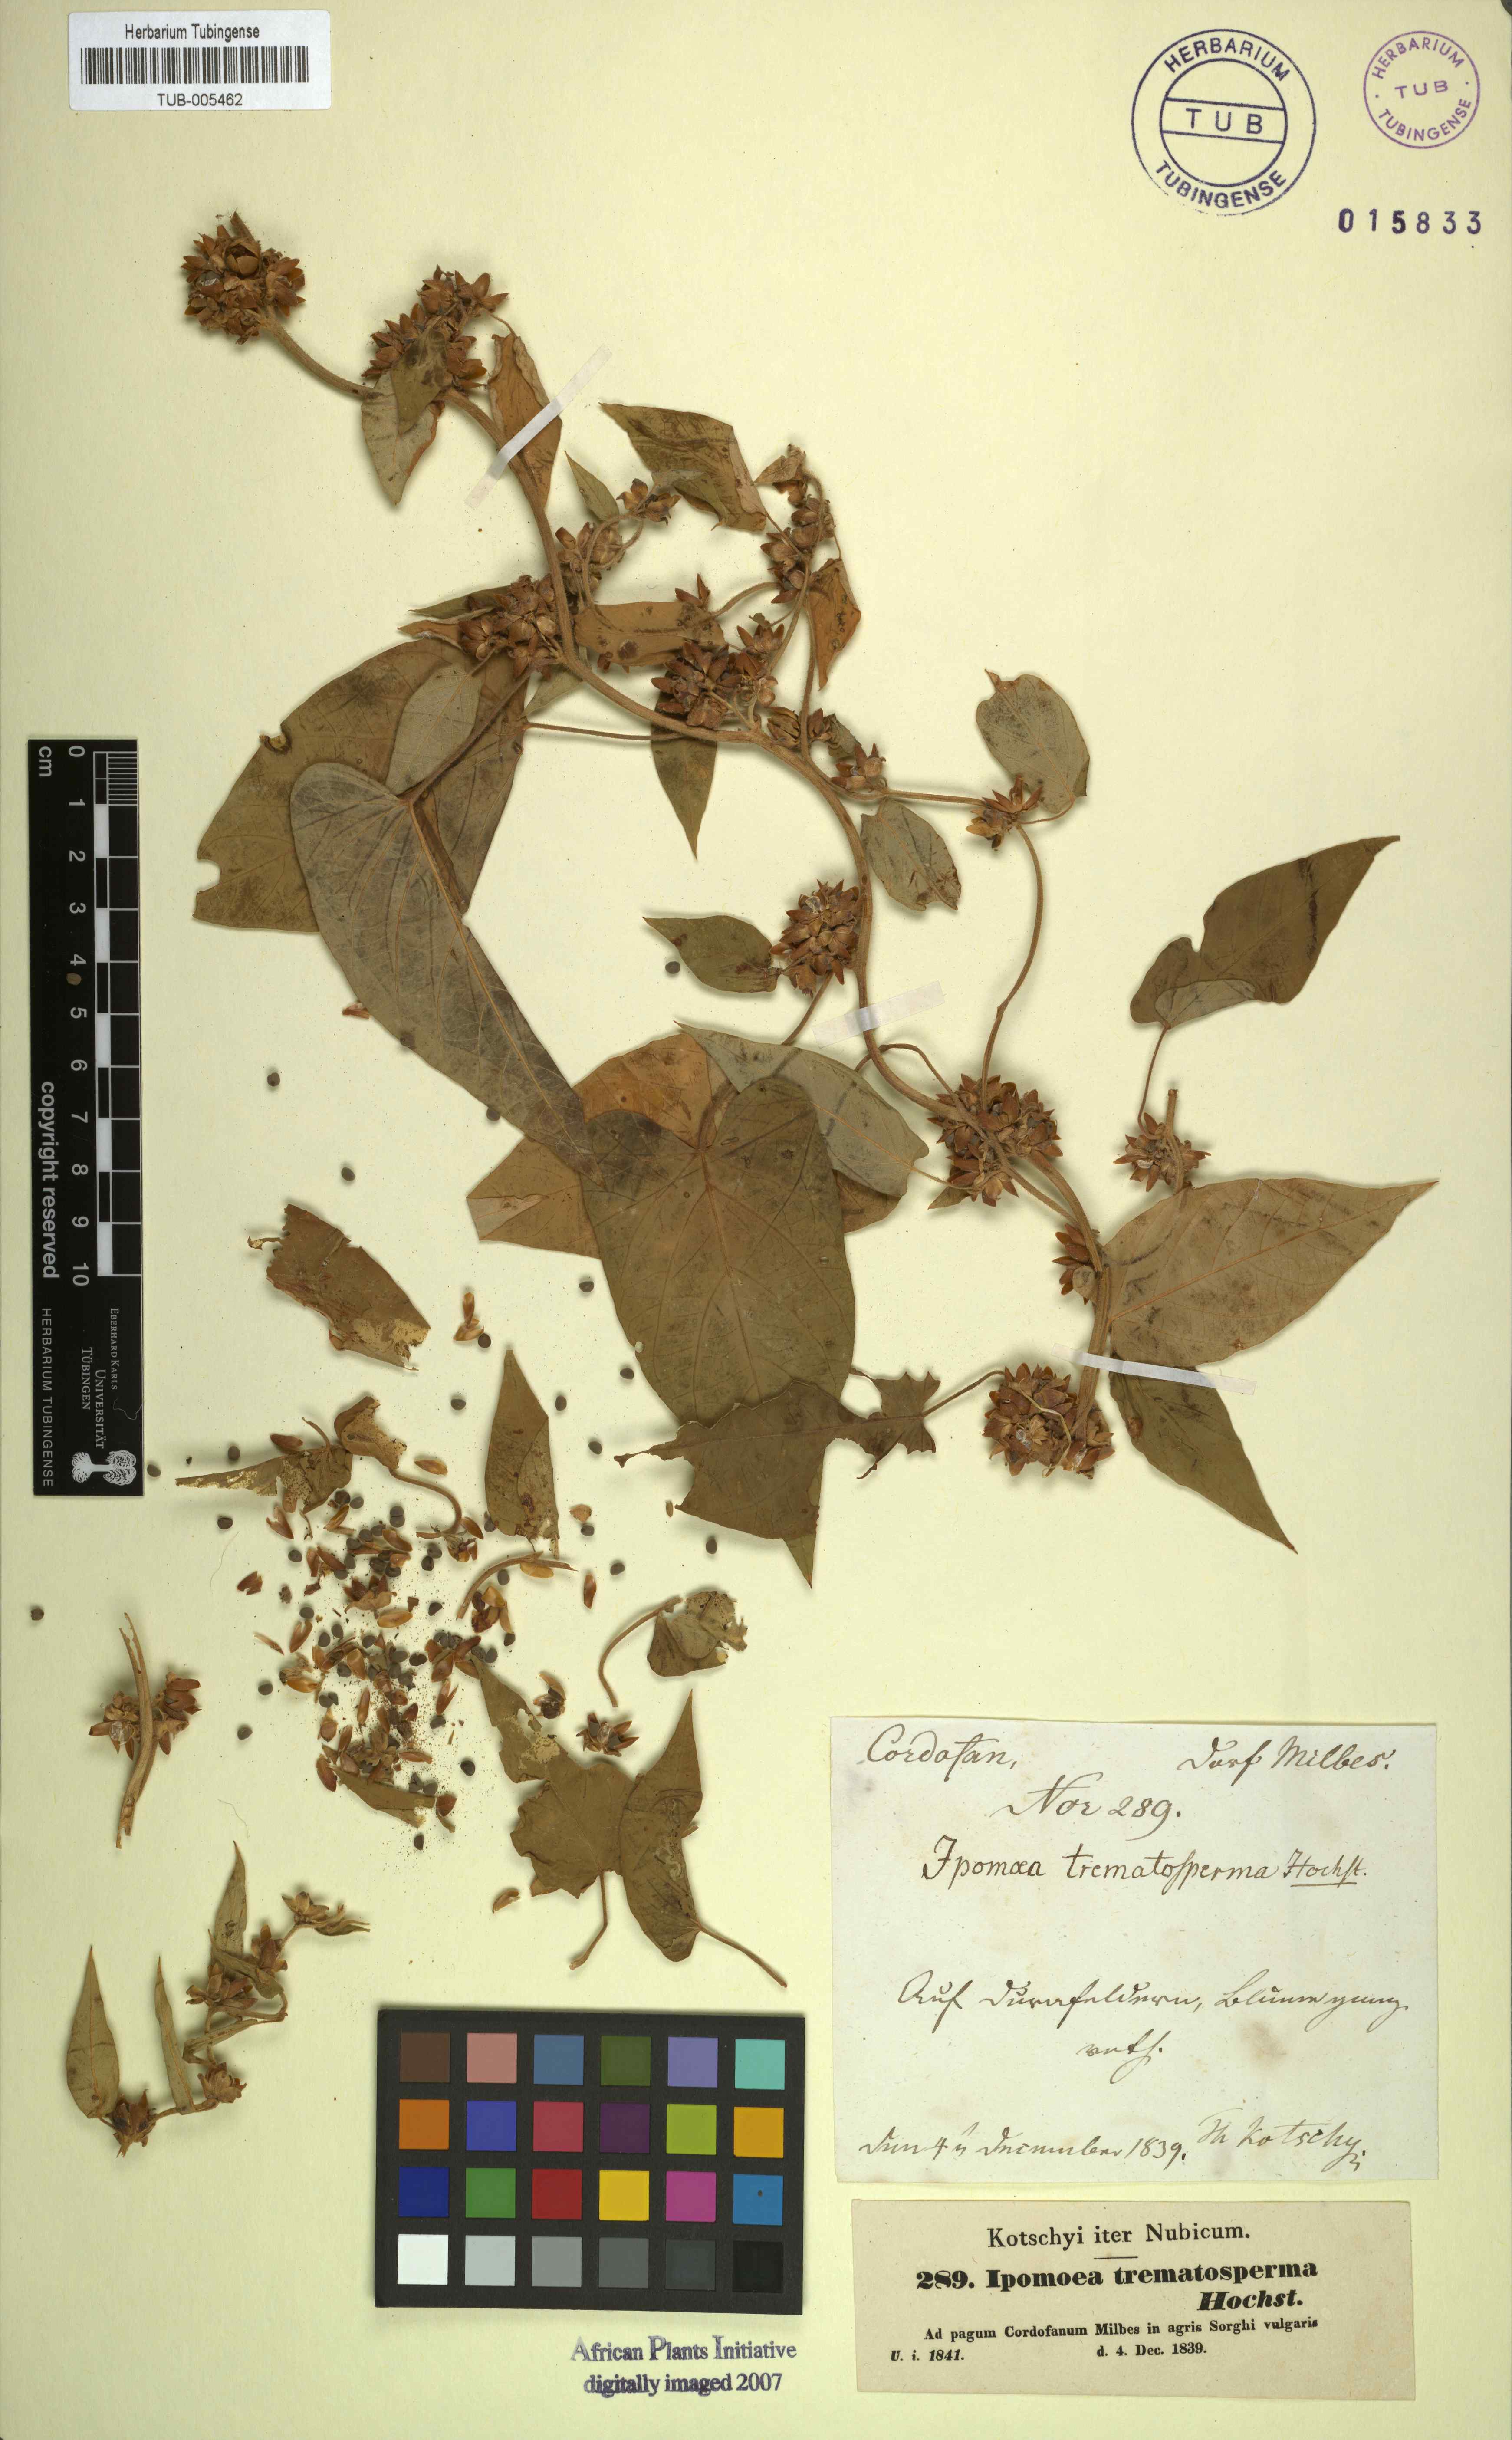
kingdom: Plantae
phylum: Tracheophyta
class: Magnoliopsida
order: Solanales
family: Convolvulaceae
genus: Ipomoea
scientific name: Ipomoea eriocarpa
